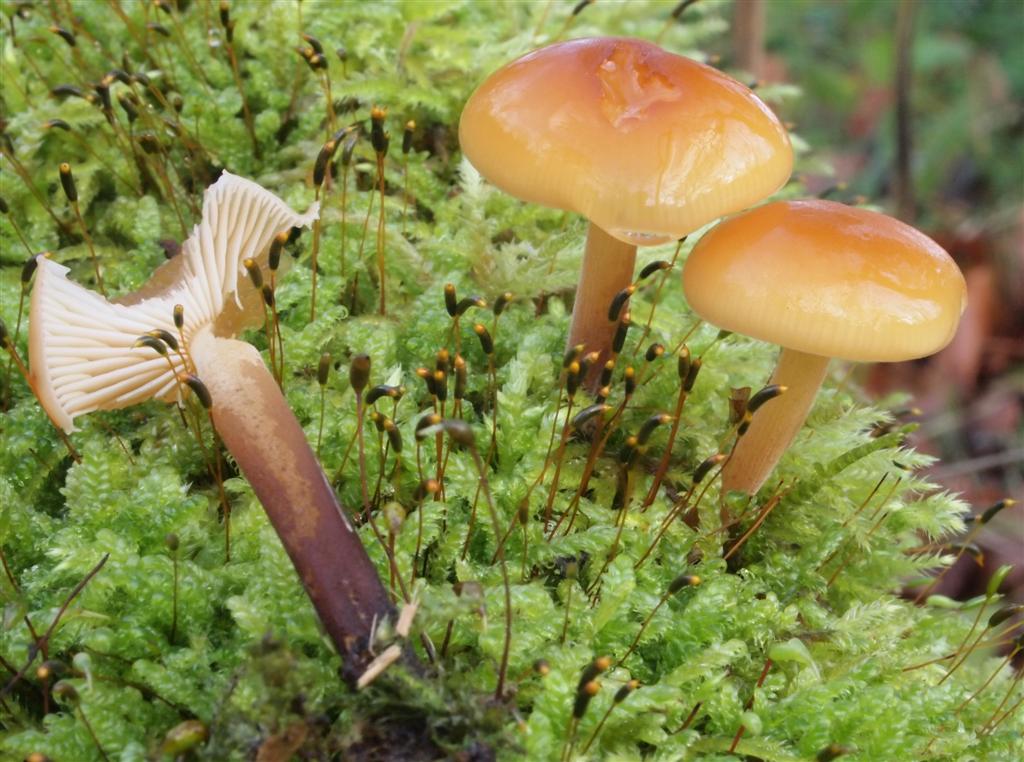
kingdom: Fungi
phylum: Basidiomycota
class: Agaricomycetes
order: Agaricales
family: Physalacriaceae
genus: Flammulina
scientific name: Flammulina velutipes
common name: gul fløjlsfod
